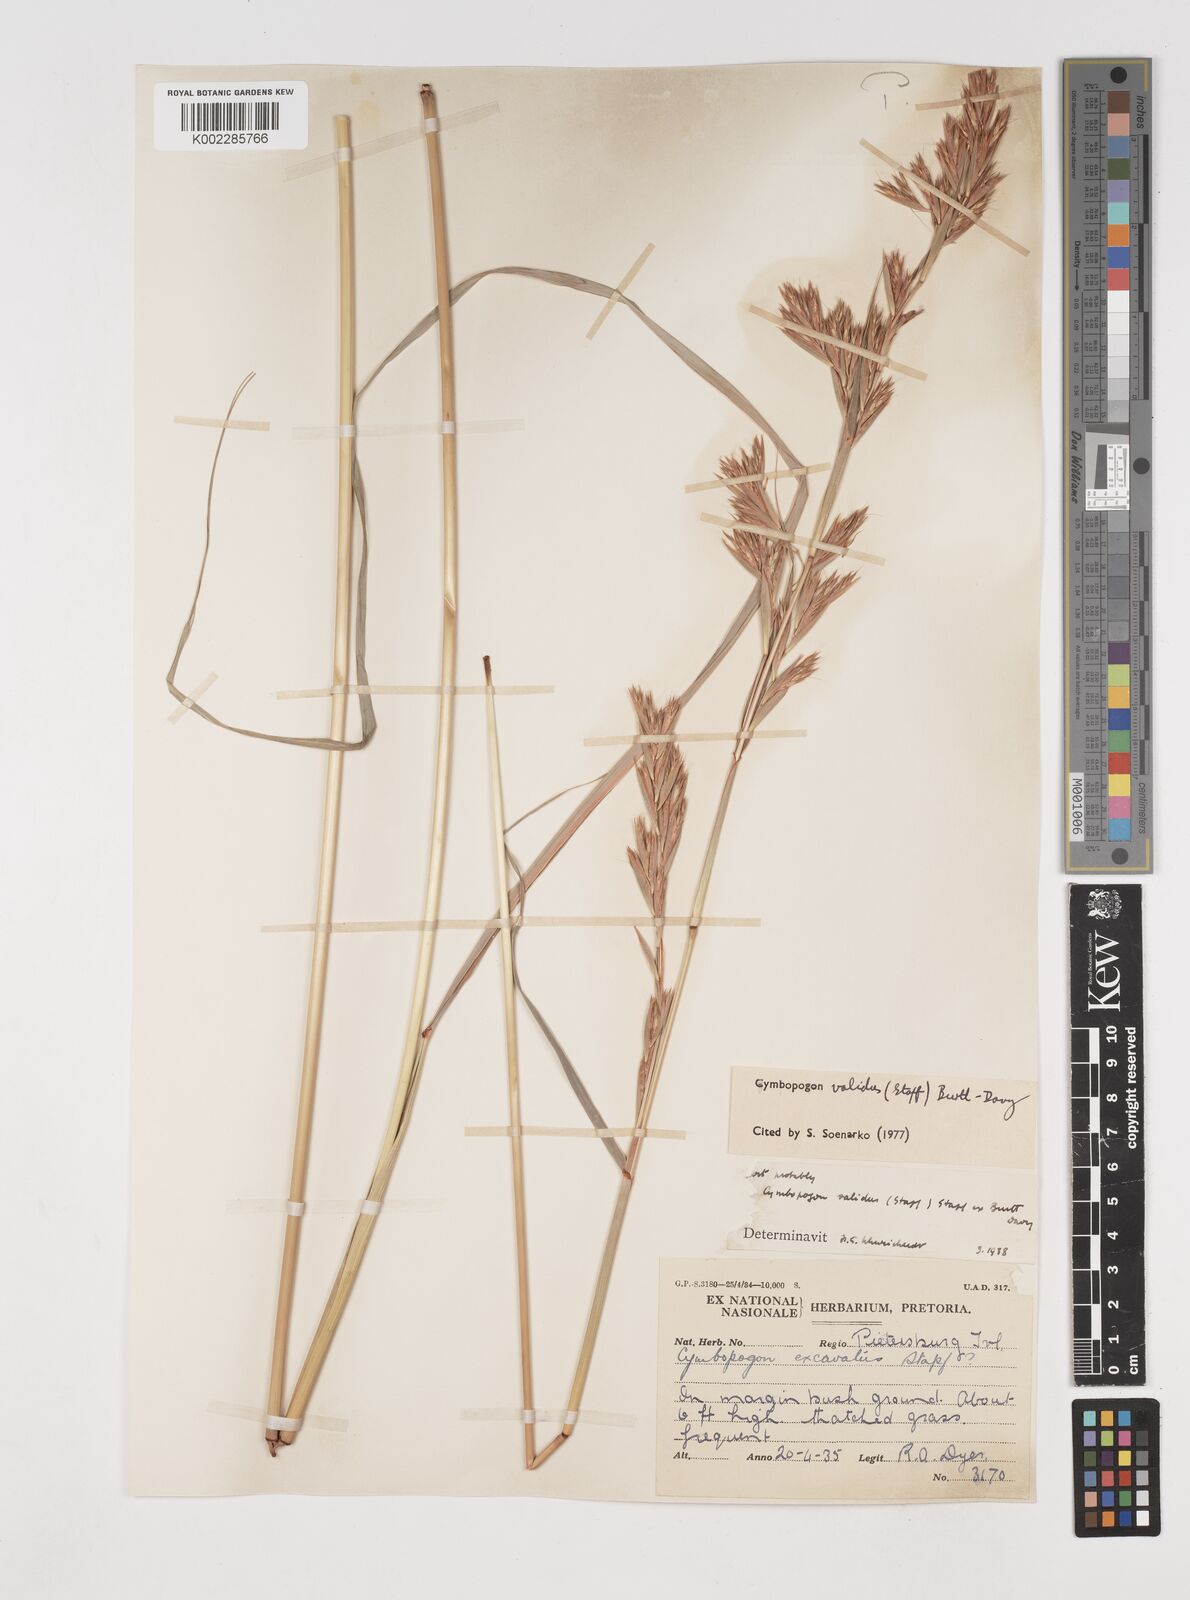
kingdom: Plantae
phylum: Tracheophyta
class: Liliopsida
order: Poales
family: Poaceae
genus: Cymbopogon
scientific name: Cymbopogon nardus
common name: Giant turpentine grass
